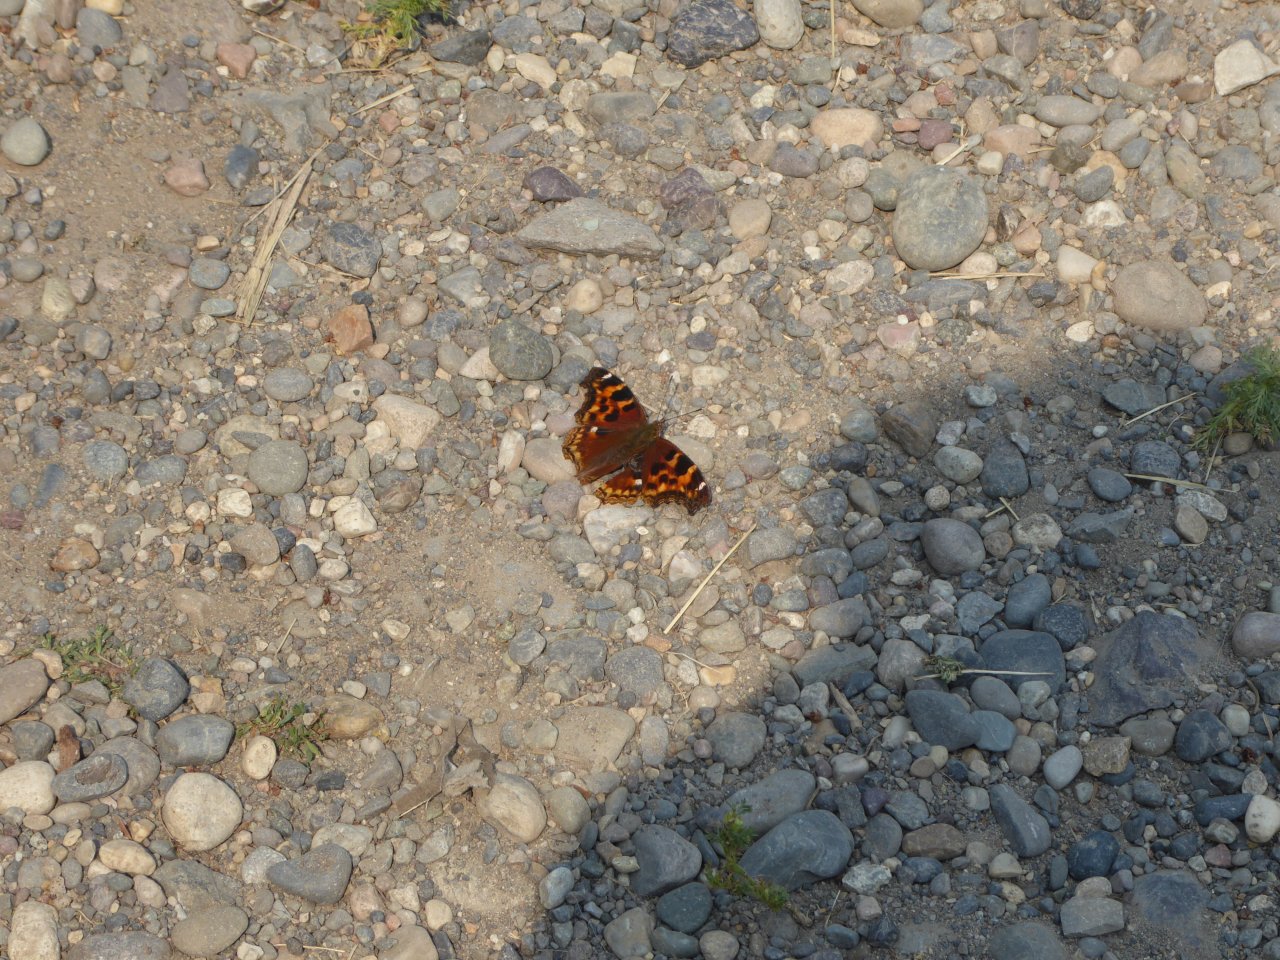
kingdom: Animalia
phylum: Arthropoda
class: Insecta
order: Lepidoptera
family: Nymphalidae
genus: Polygonia
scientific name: Polygonia vaualbum
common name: Compton Tortoiseshell
